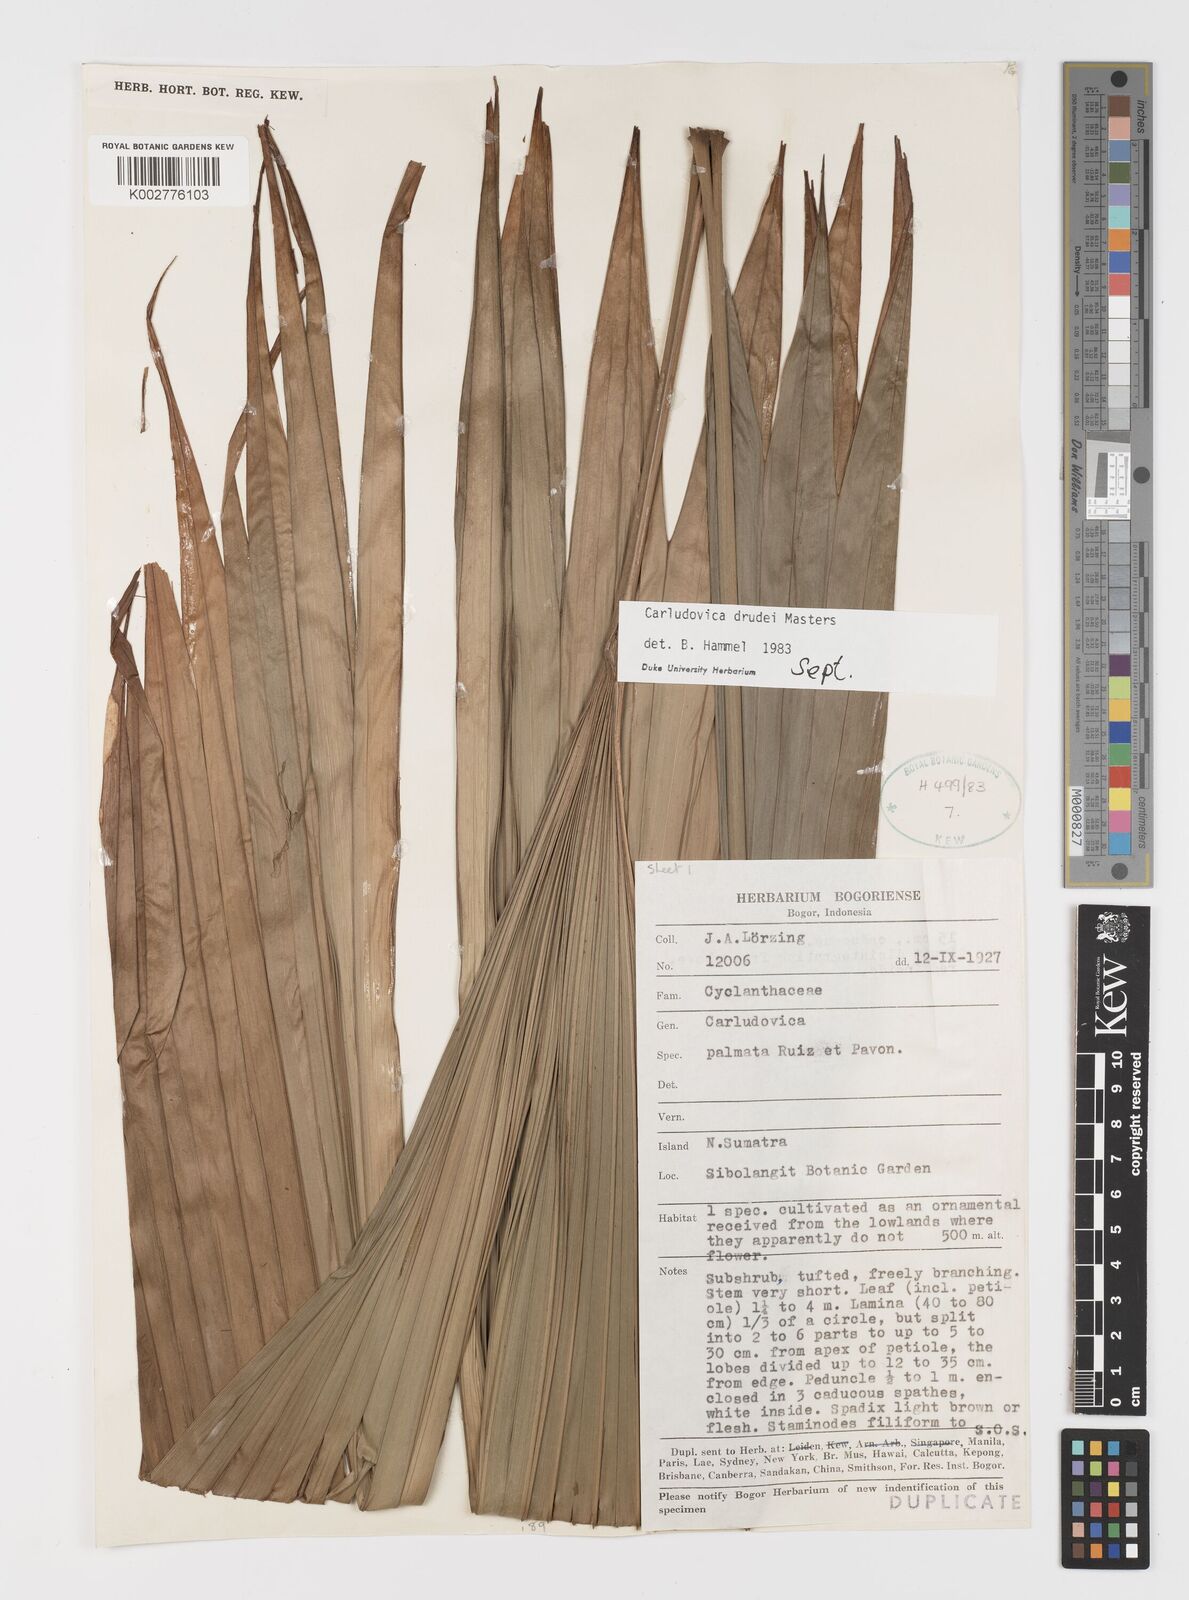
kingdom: Plantae
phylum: Tracheophyta
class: Liliopsida
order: Pandanales
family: Cyclanthaceae
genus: Carludovica
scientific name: Carludovica drudei
